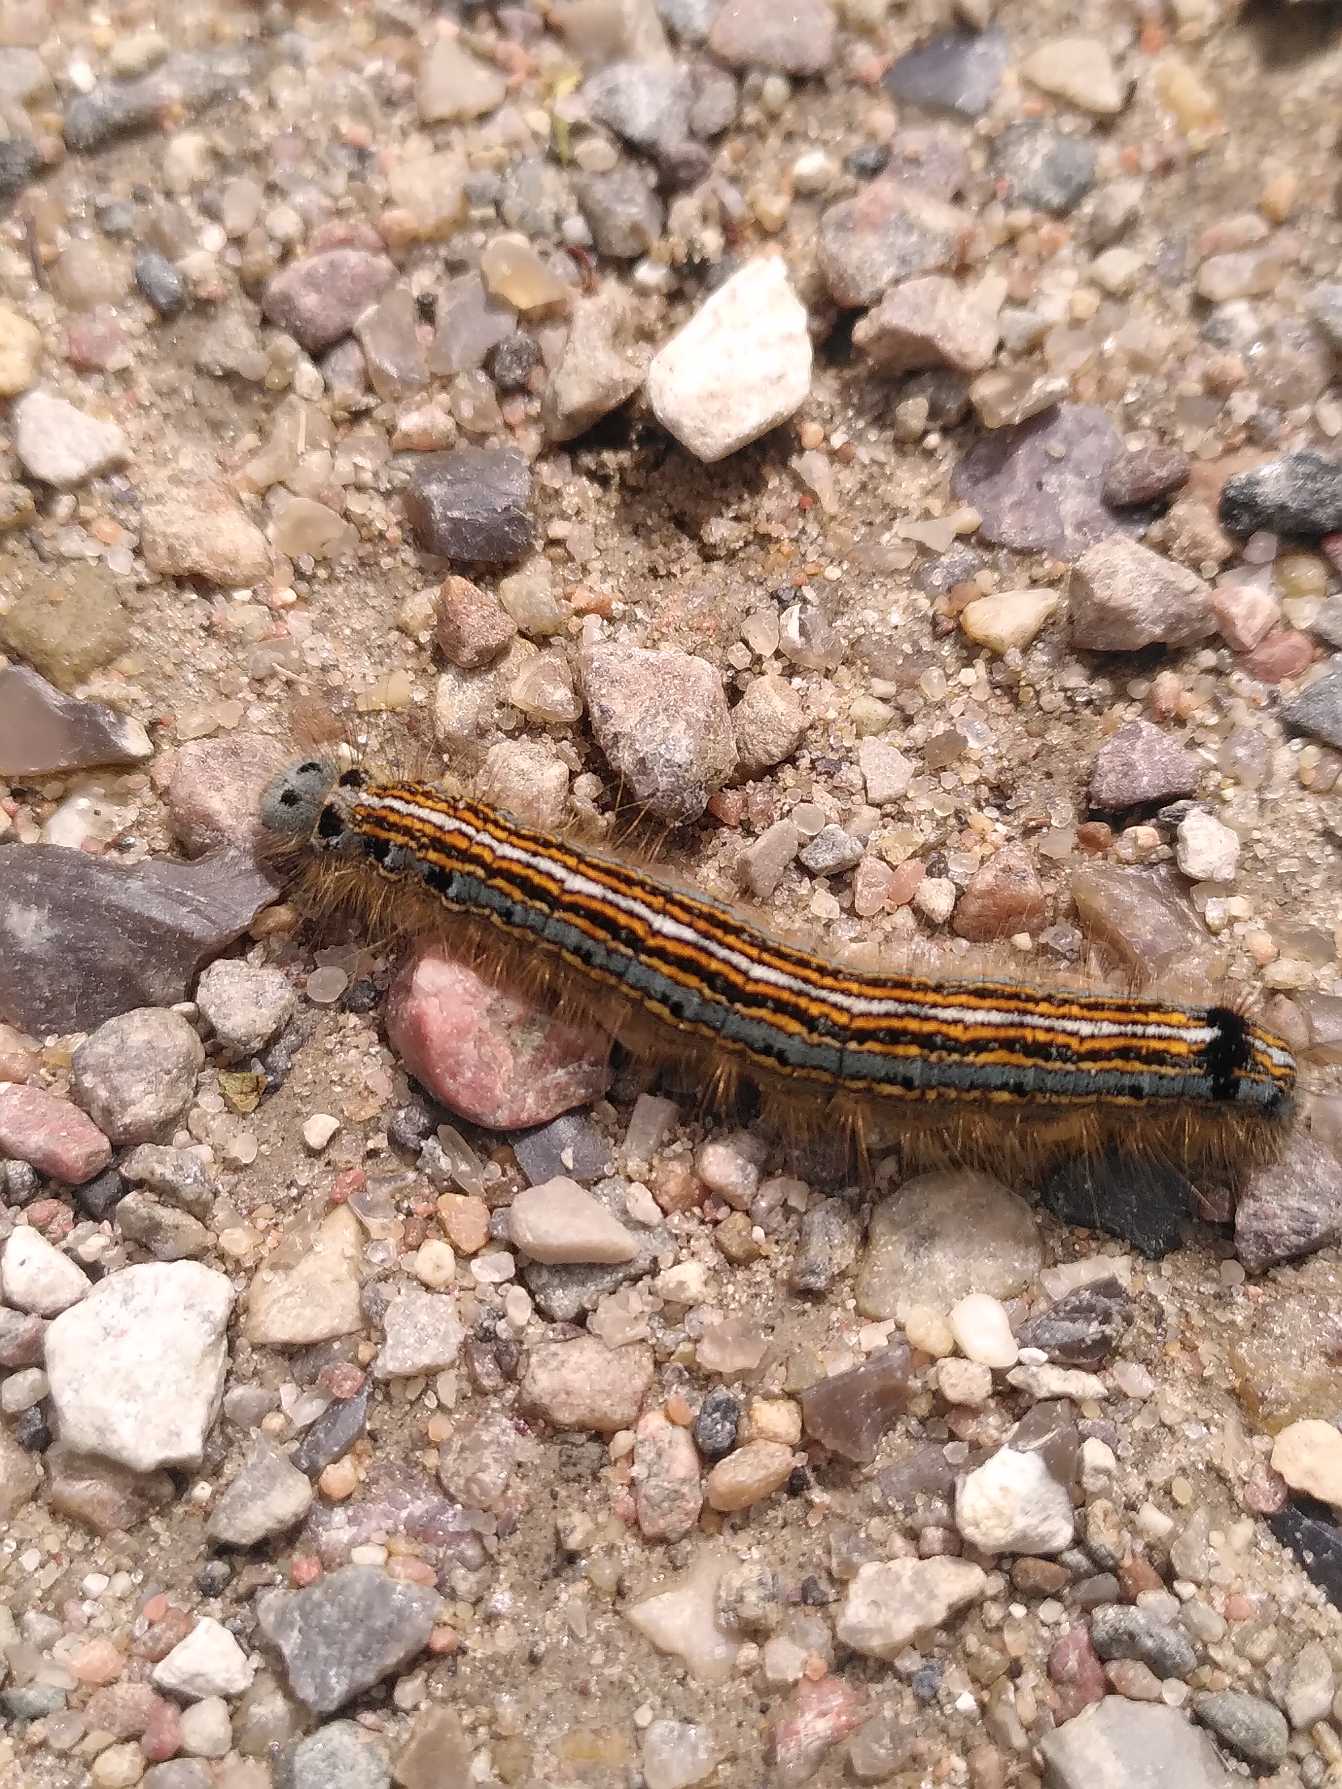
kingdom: Animalia
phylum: Arthropoda
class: Insecta
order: Lepidoptera
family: Lasiocampidae
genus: Malacosoma
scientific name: Malacosoma neustria
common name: Ringspinder
